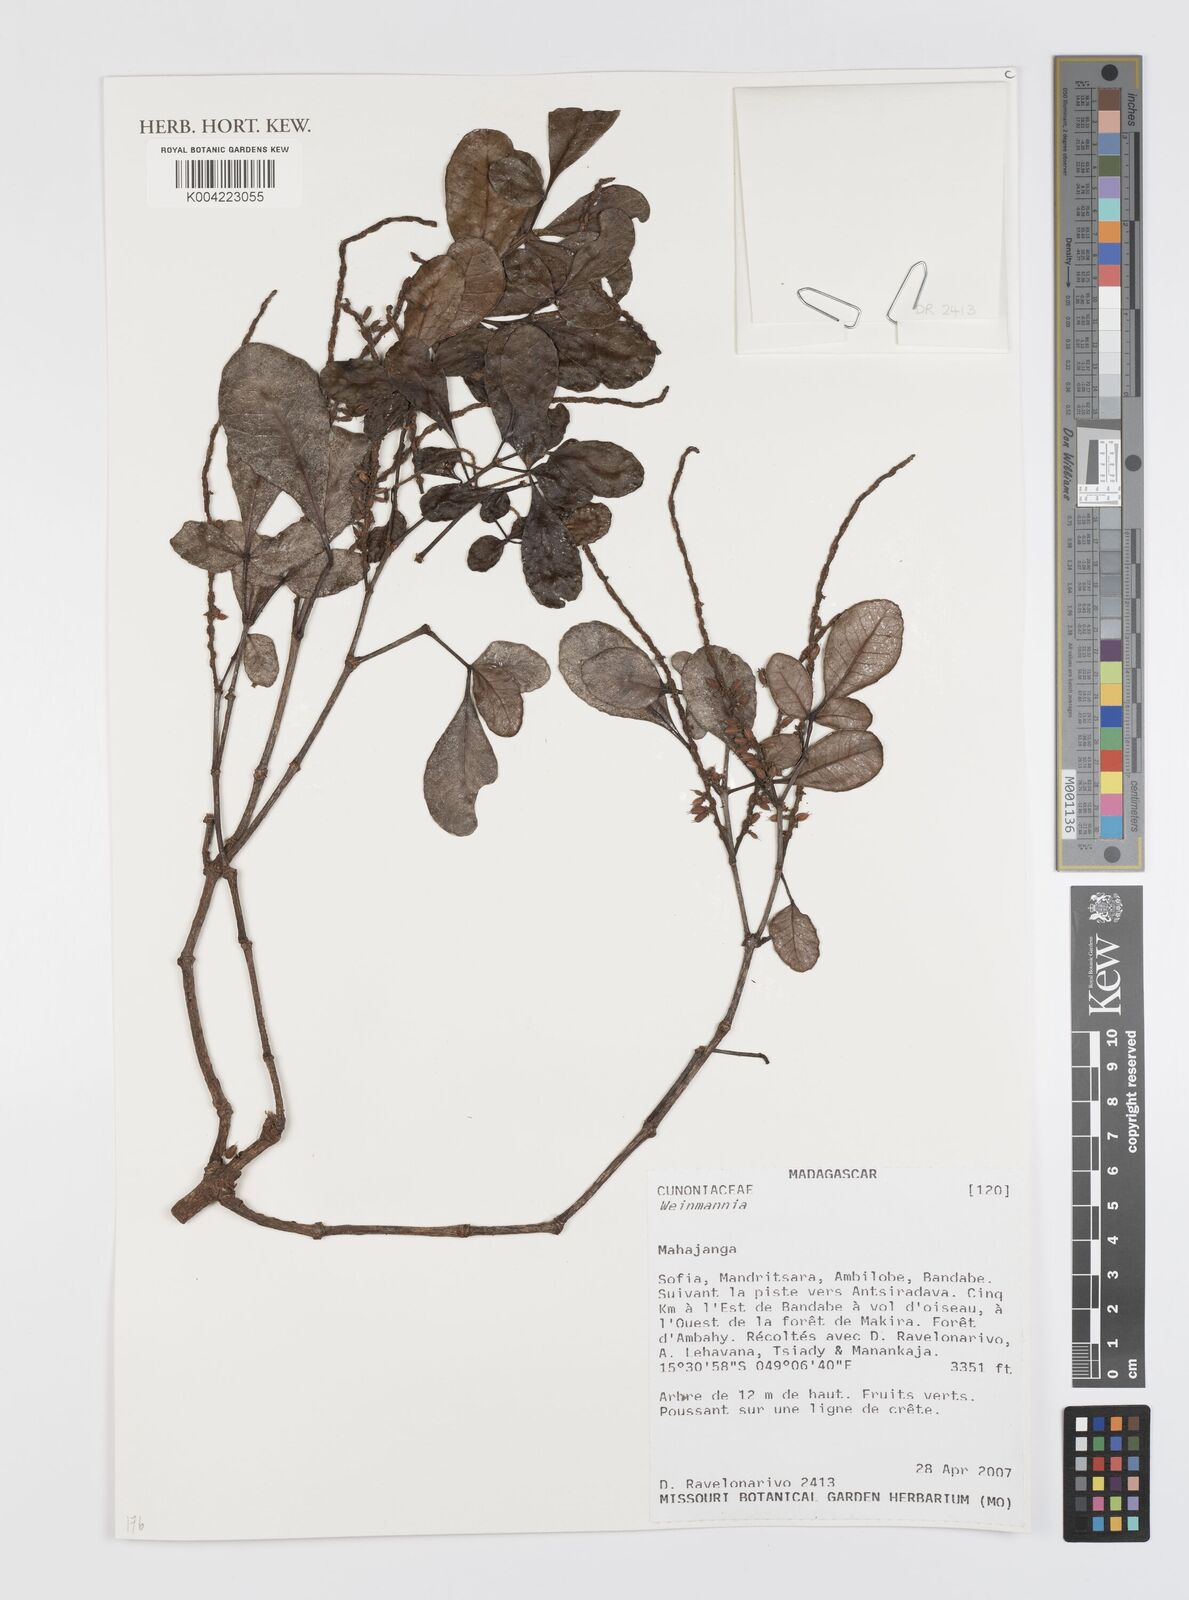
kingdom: Plantae
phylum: Tracheophyta
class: Magnoliopsida
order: Oxalidales
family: Cunoniaceae
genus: Weinmannia
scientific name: Weinmannia
